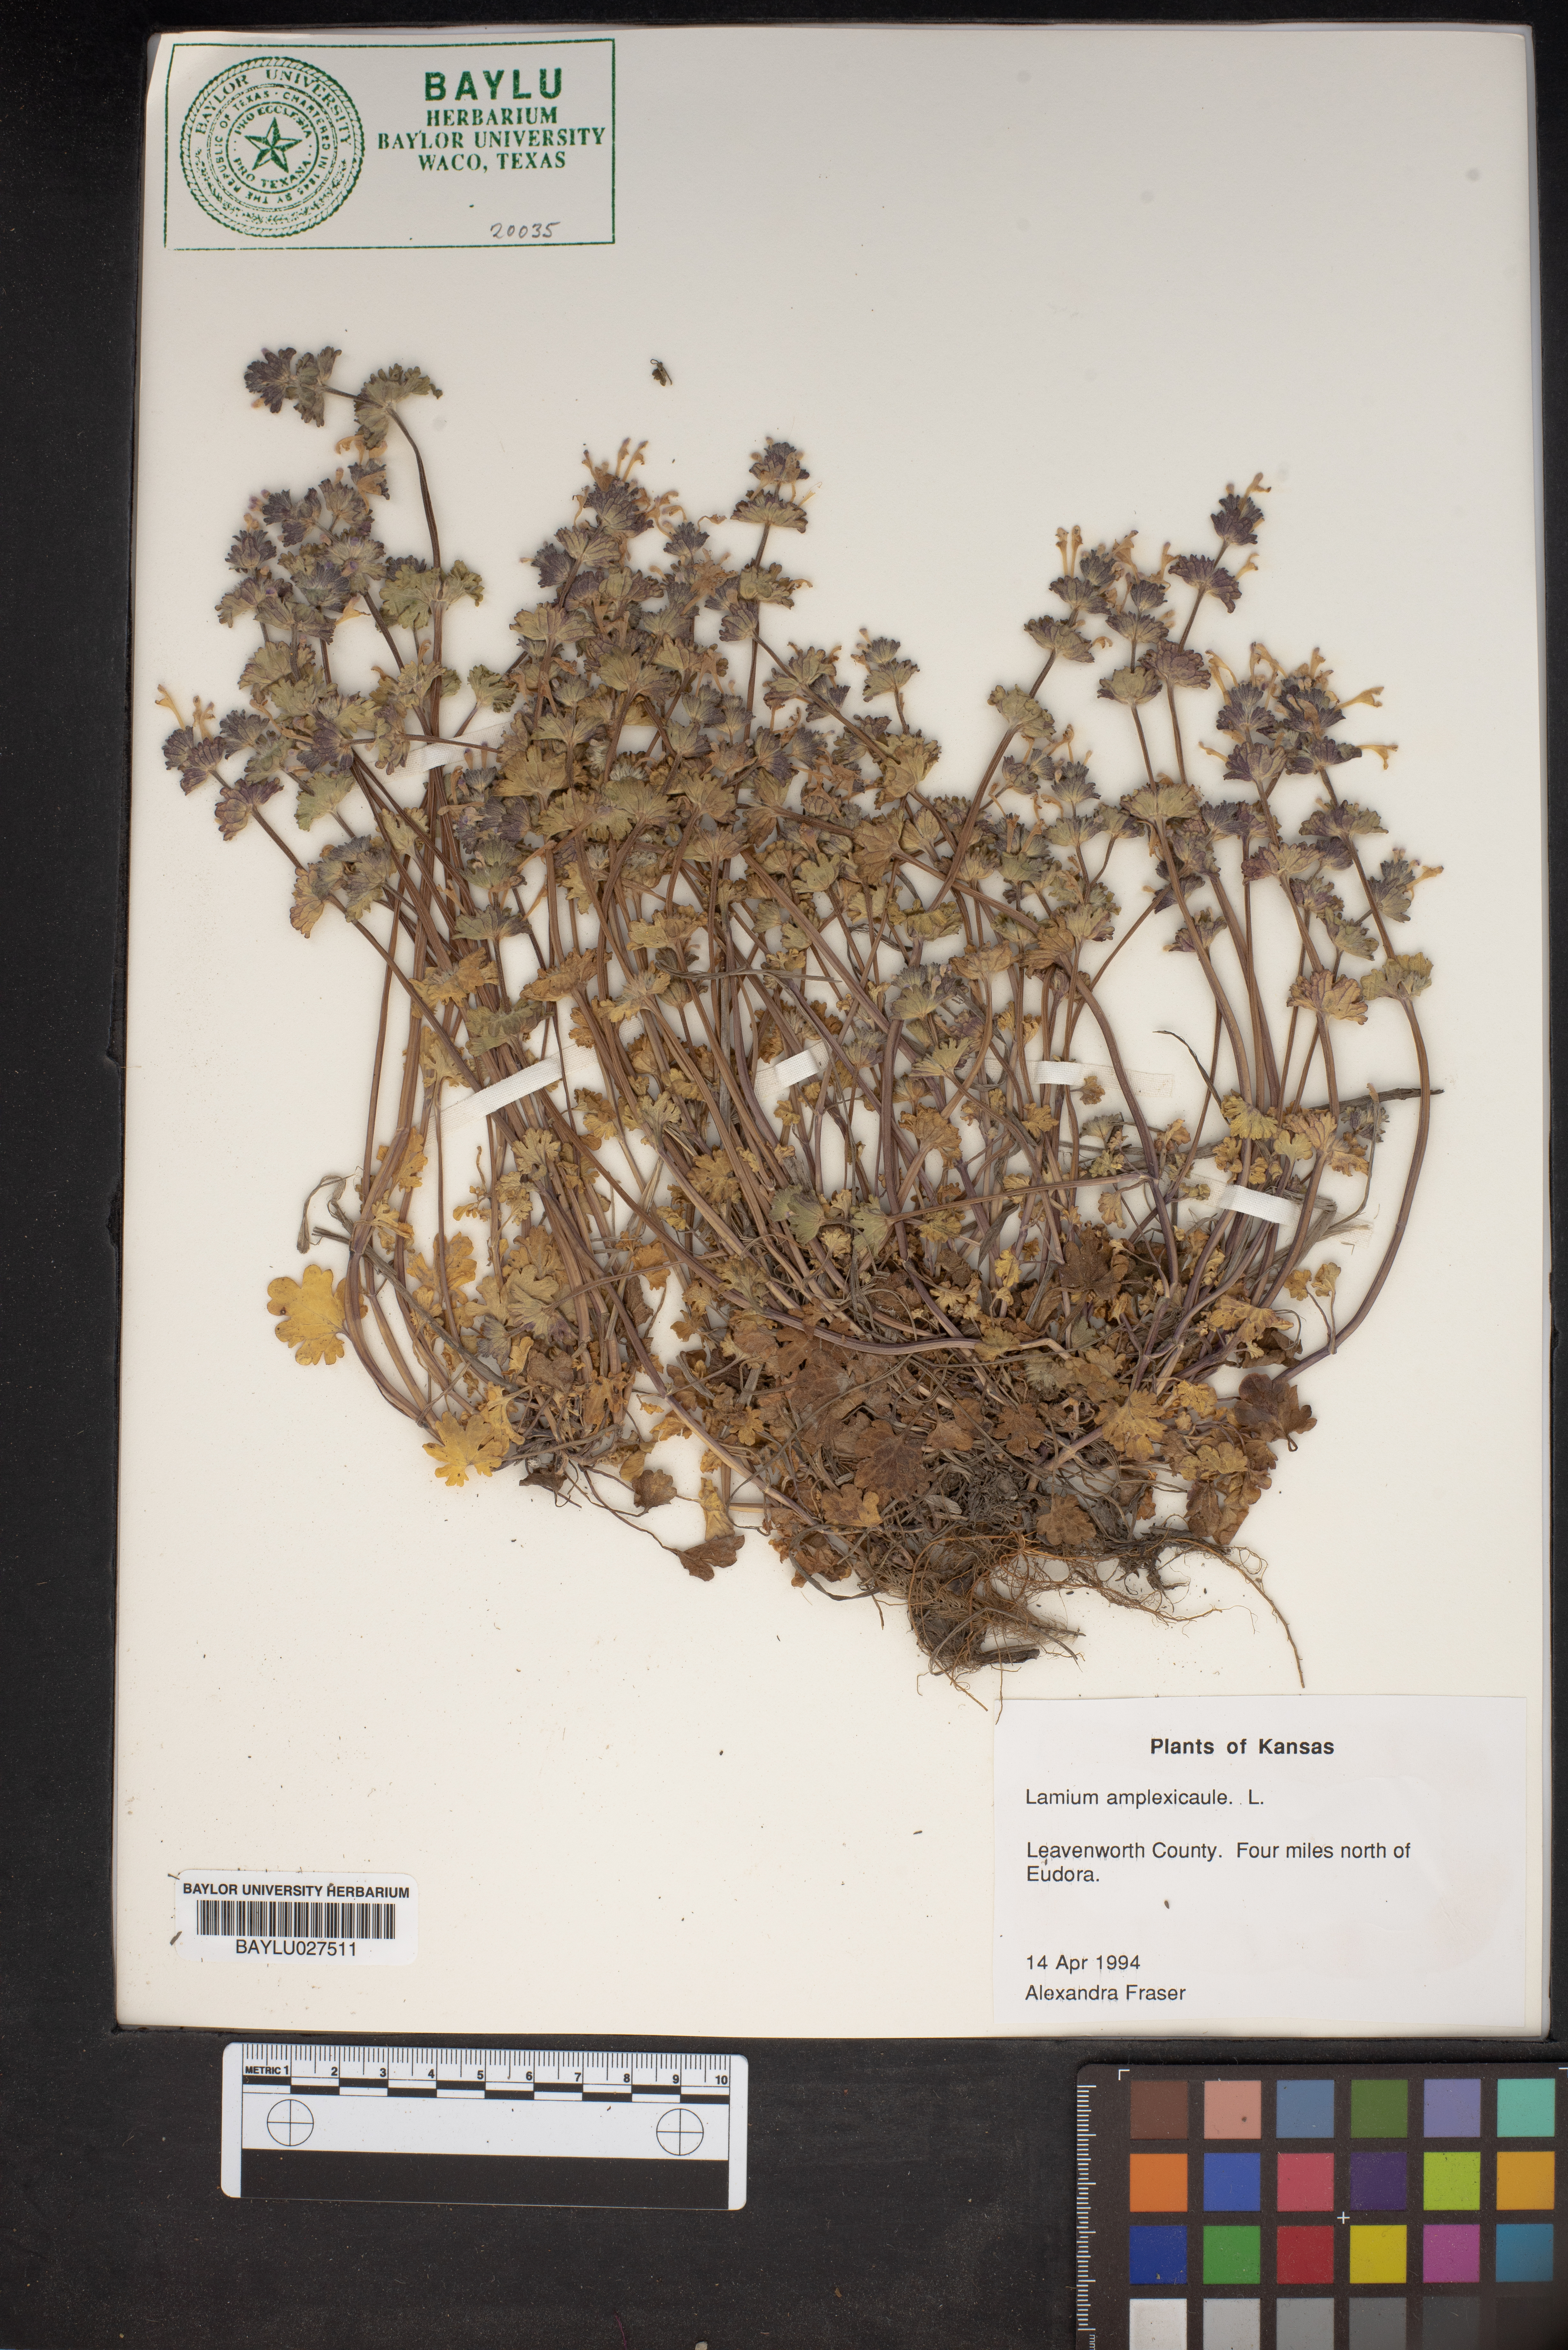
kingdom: Plantae
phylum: Tracheophyta
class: Magnoliopsida
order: Lamiales
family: Lamiaceae
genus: Lamium
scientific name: Lamium amplexicaule
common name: Henbit dead-nettle
